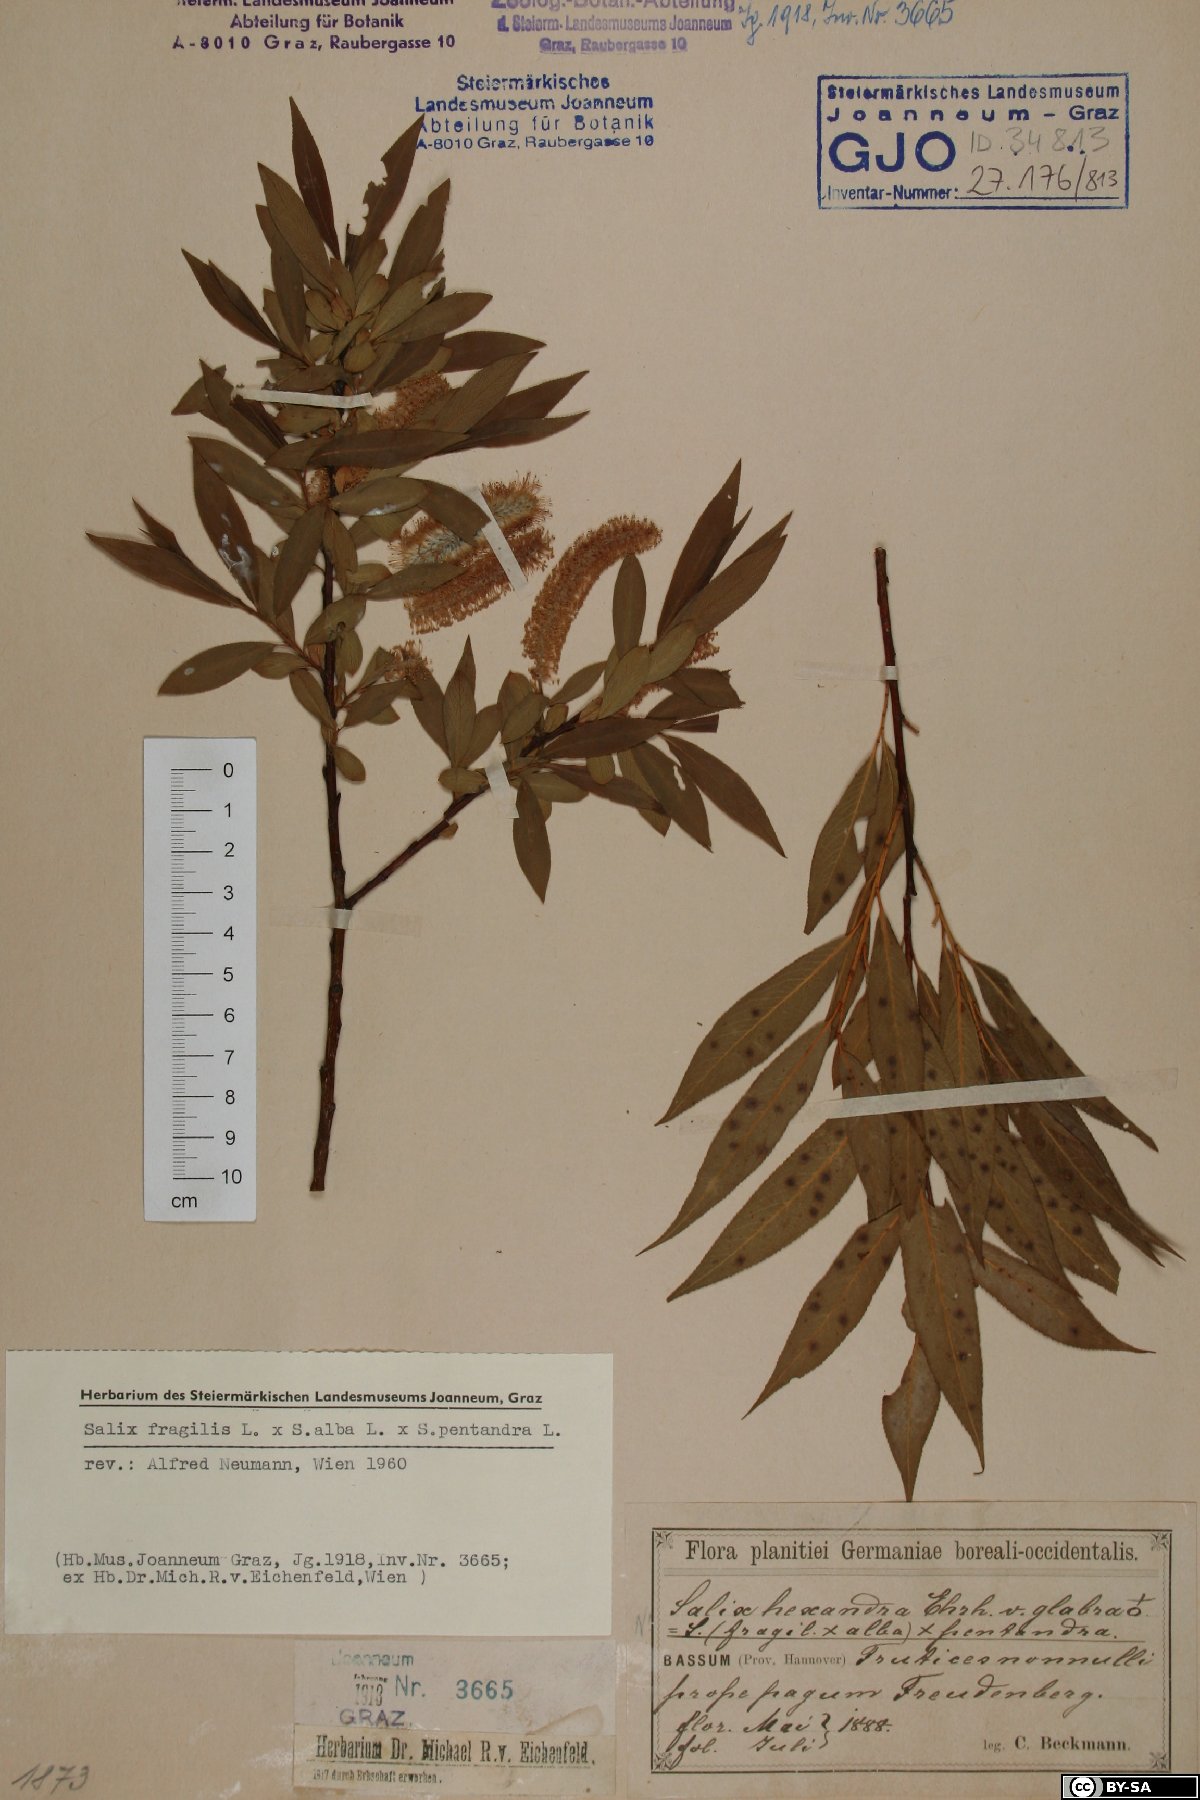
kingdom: Plantae
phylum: Tracheophyta
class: Magnoliopsida
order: Malpighiales
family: Salicaceae
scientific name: Salicaceae
